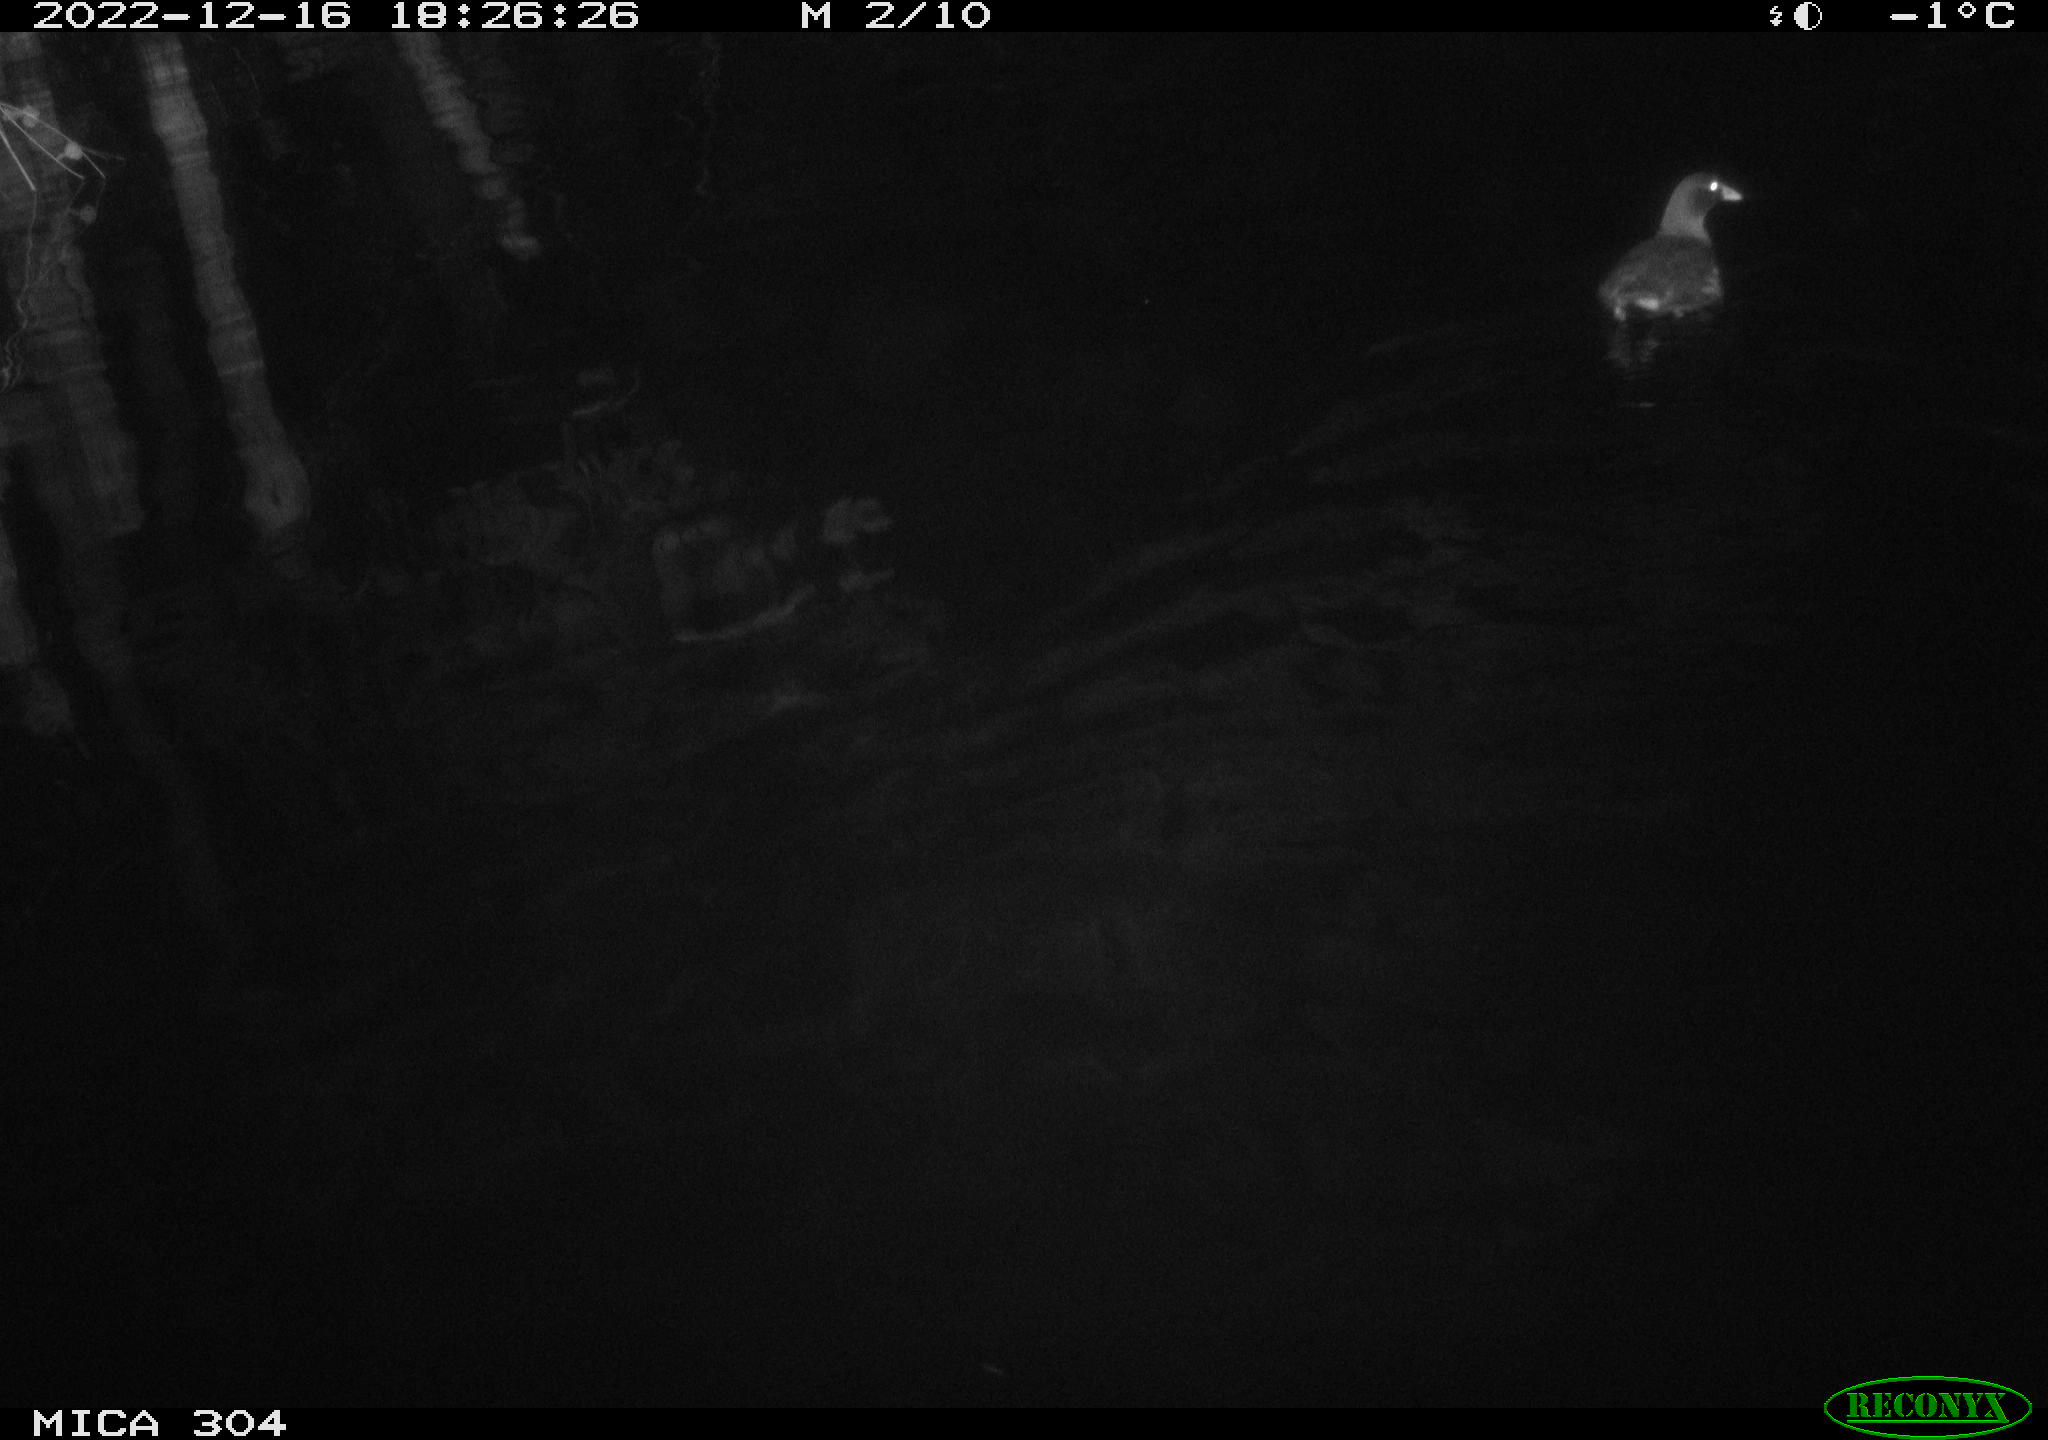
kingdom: Animalia
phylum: Chordata
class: Aves
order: Anseriformes
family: Anatidae
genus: Anas
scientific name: Anas
